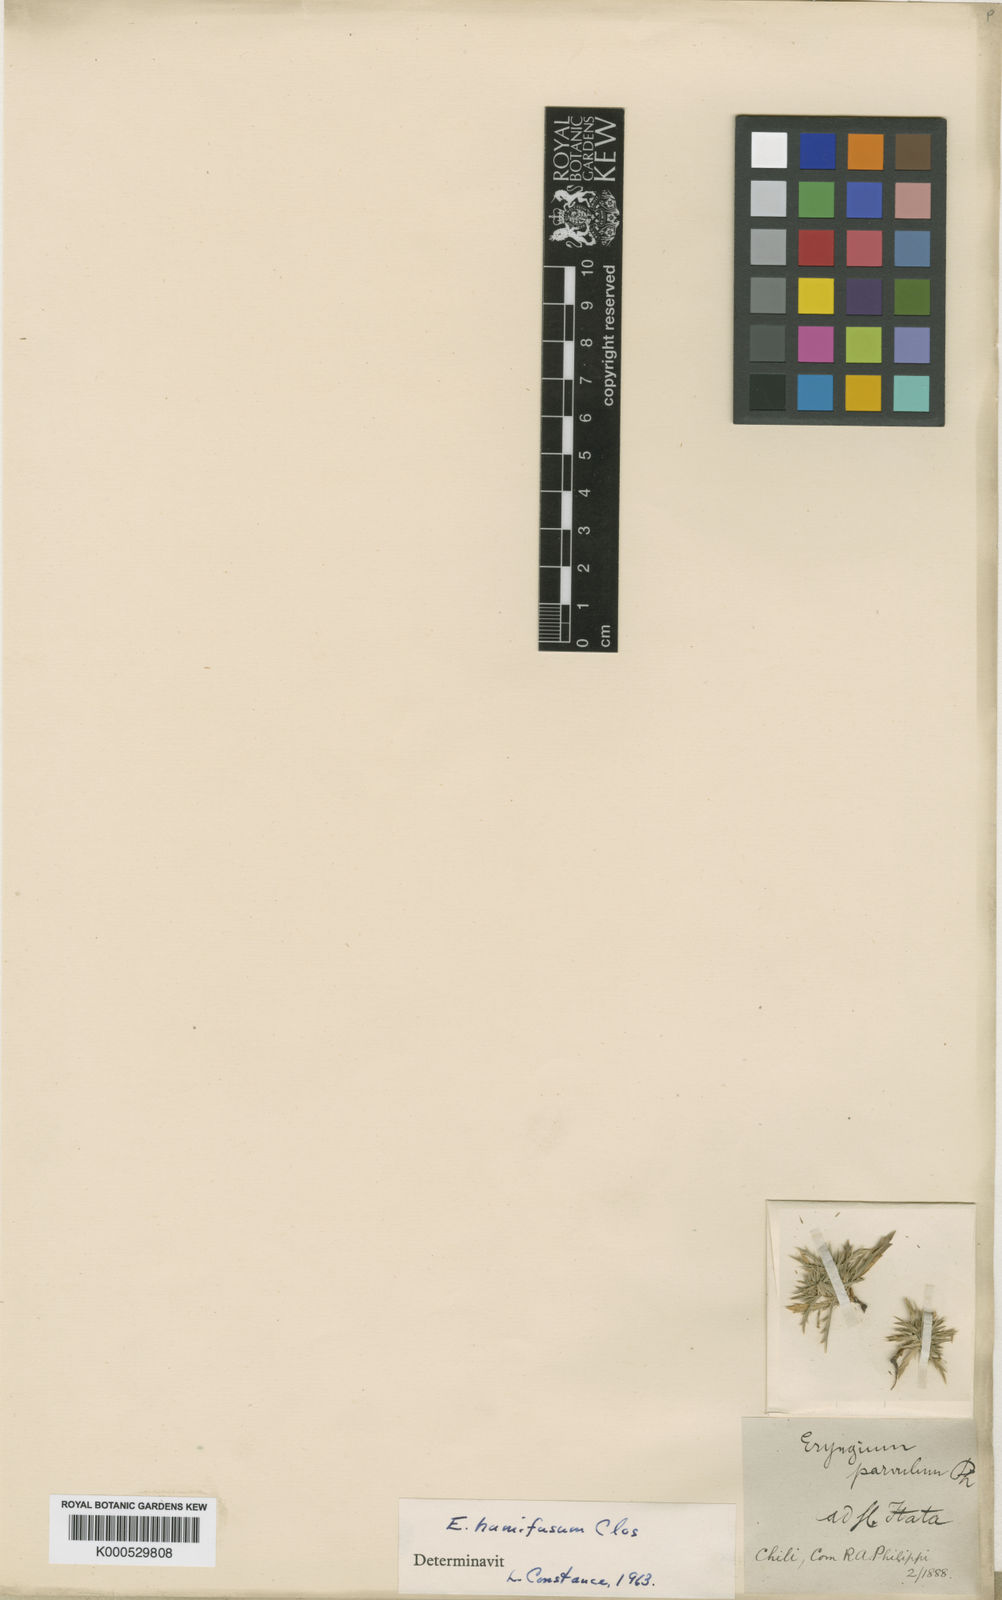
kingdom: Plantae
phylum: Tracheophyta
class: Magnoliopsida
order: Apiales
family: Apiaceae
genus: Eryngium
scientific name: Eryngium humifusum
